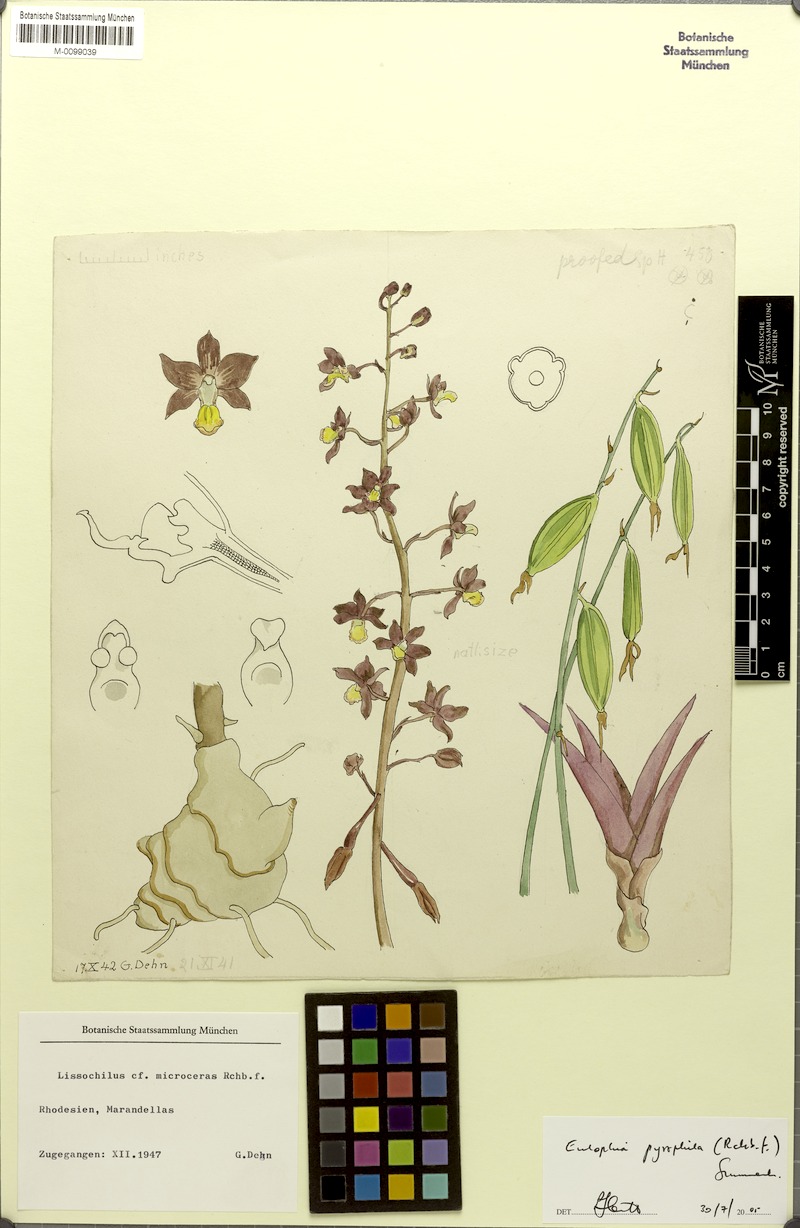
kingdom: Plantae
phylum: Tracheophyta
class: Liliopsida
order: Asparagales
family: Orchidaceae
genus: Eulophia
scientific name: Eulophia pyrophila
